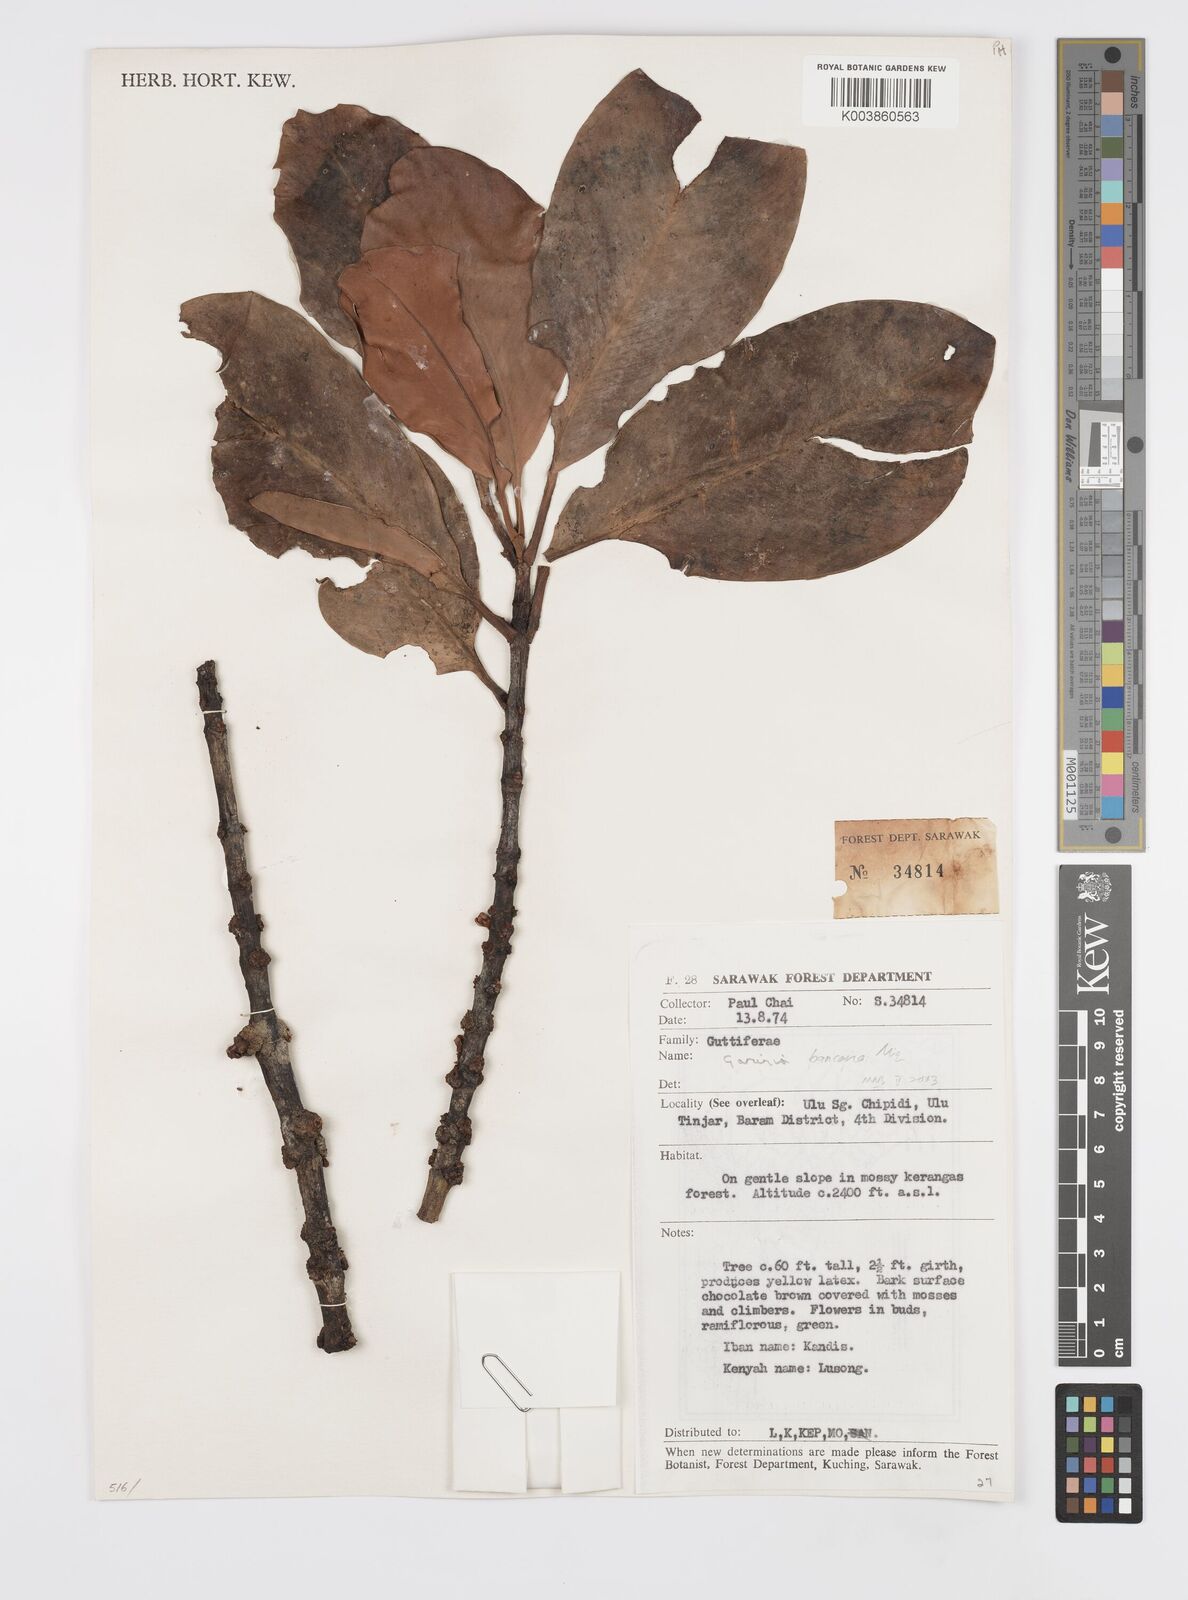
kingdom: Plantae
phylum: Tracheophyta
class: Magnoliopsida
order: Malpighiales
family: Clusiaceae
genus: Garcinia
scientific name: Garcinia bancana
